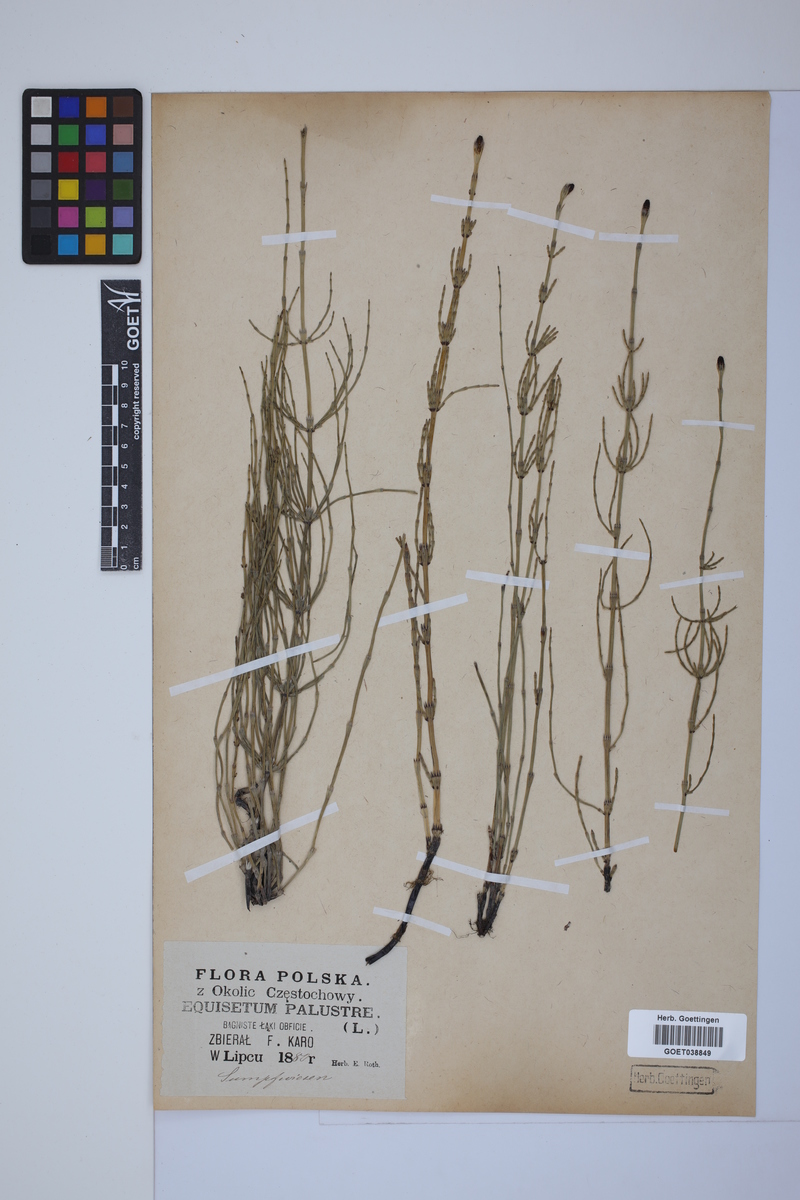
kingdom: Plantae
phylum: Tracheophyta
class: Polypodiopsida
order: Equisetales
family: Equisetaceae
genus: Equisetum
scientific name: Equisetum palustre
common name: Marsh horsetail
